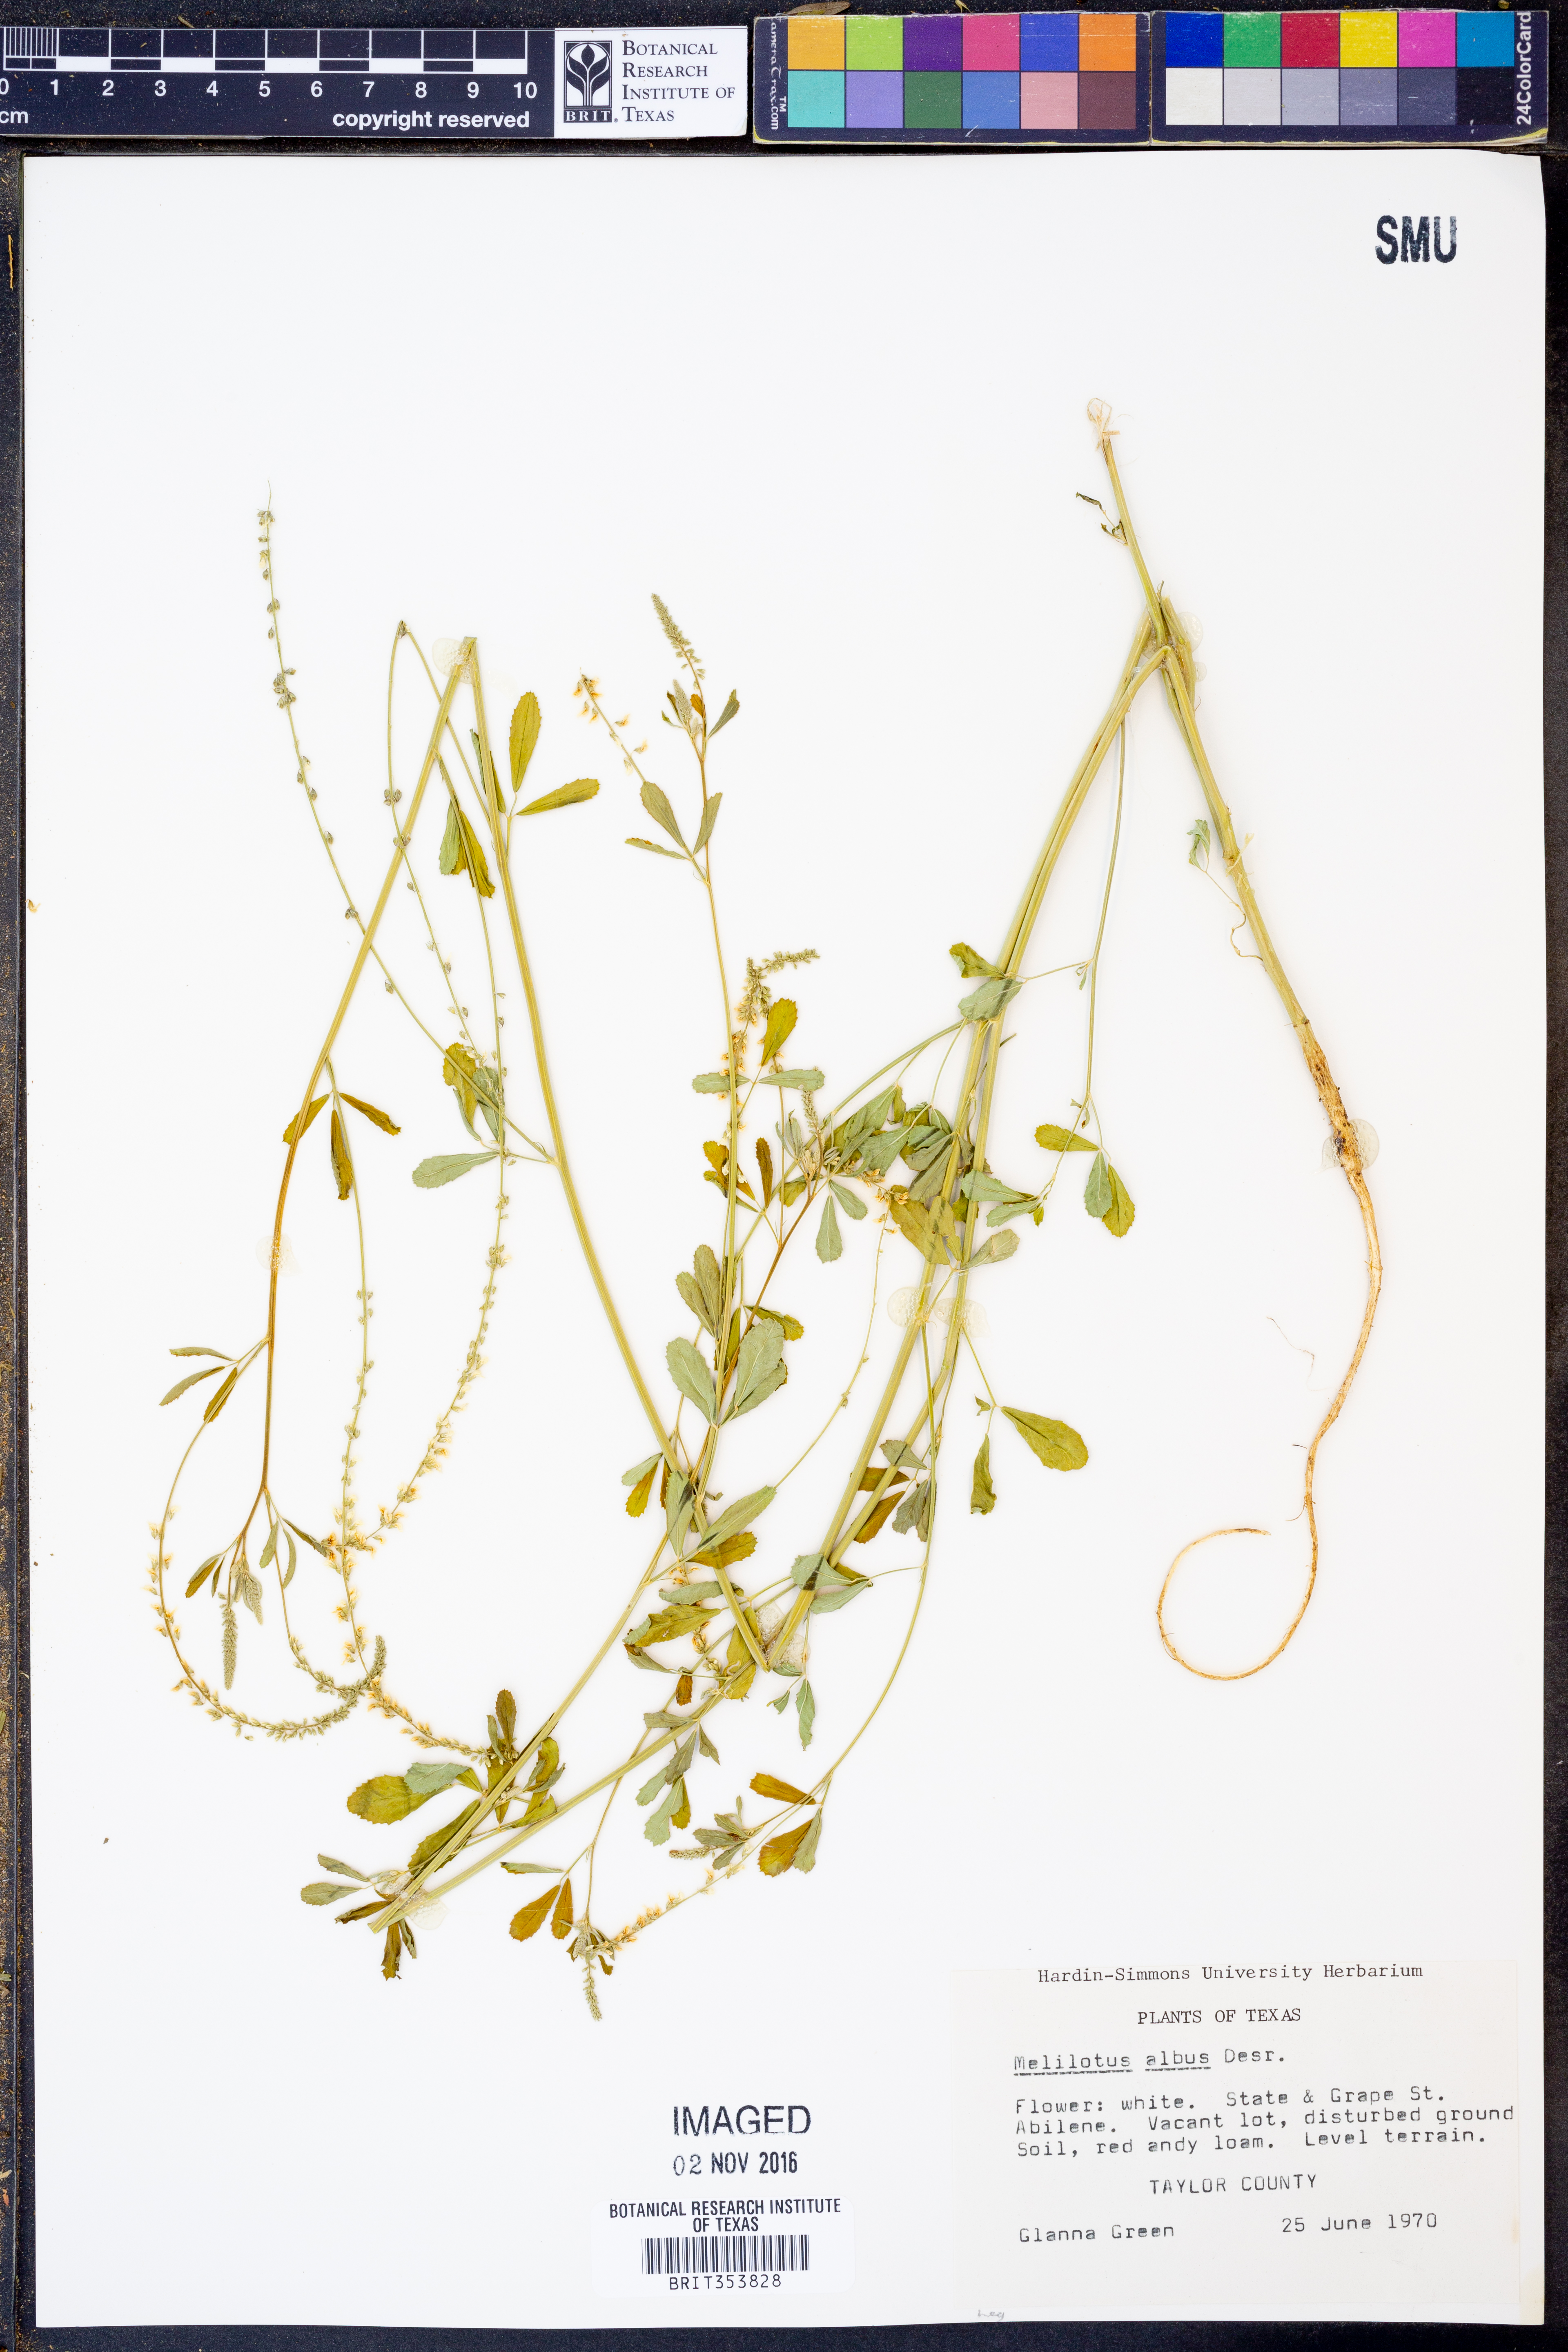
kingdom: Plantae
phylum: Tracheophyta
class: Magnoliopsida
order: Fabales
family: Fabaceae
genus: Melilotus
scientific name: Melilotus albus
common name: White melilot
